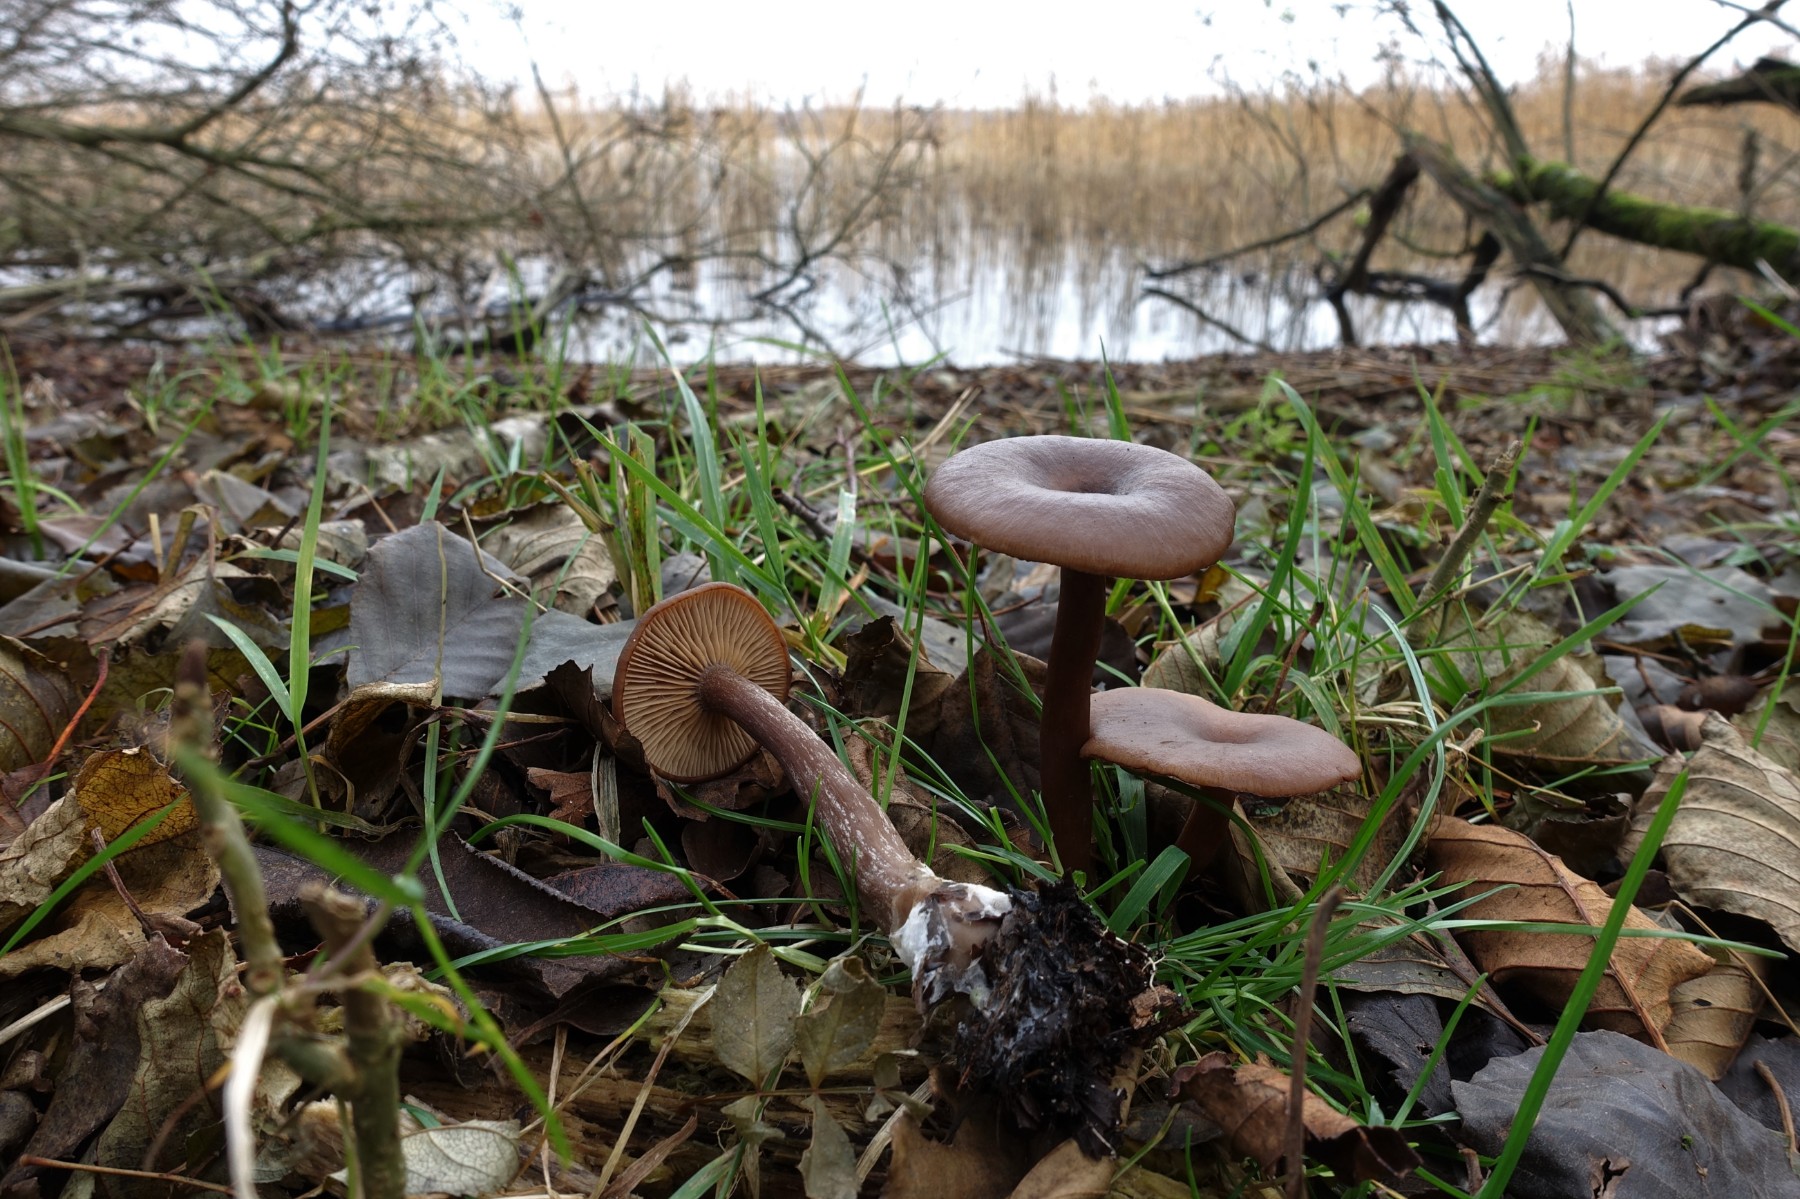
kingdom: Fungi
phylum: Basidiomycota
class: Agaricomycetes
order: Agaricales
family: Pseudoclitocybaceae
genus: Pseudoclitocybe
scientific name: Pseudoclitocybe cyathiformis
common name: almindelig bægertragthat
